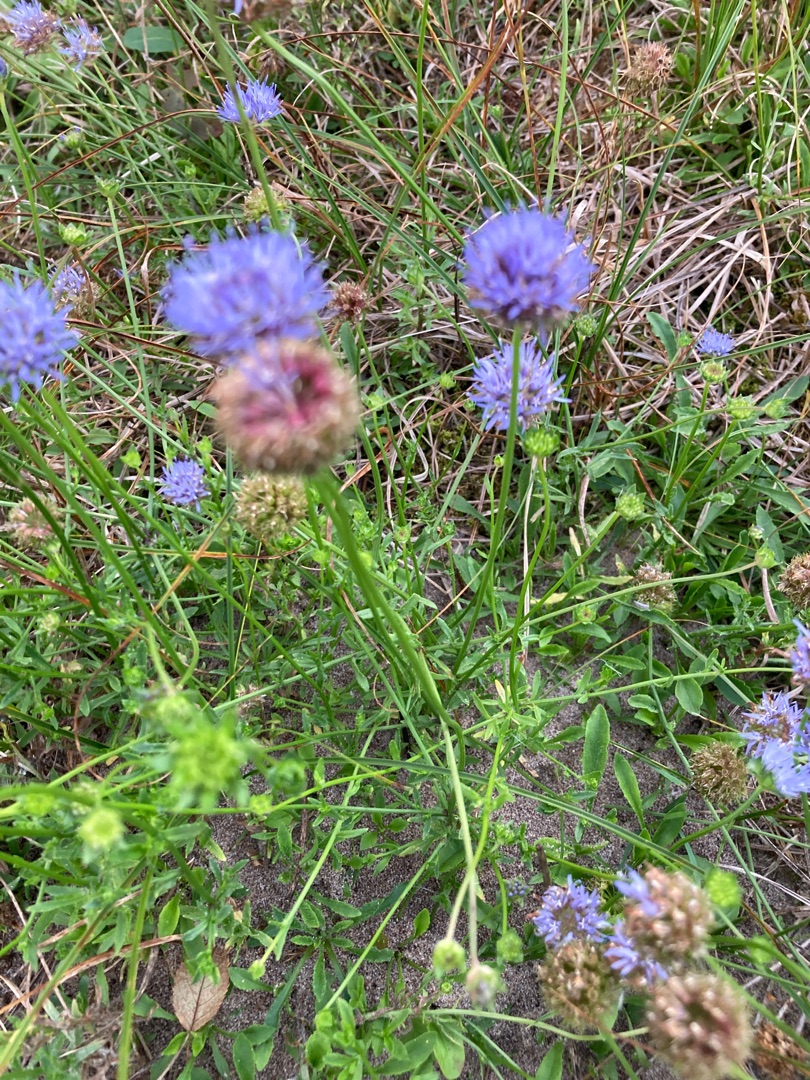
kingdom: Plantae
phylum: Tracheophyta
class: Magnoliopsida
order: Asterales
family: Campanulaceae
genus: Jasione
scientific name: Jasione montana
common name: Blåmunke
